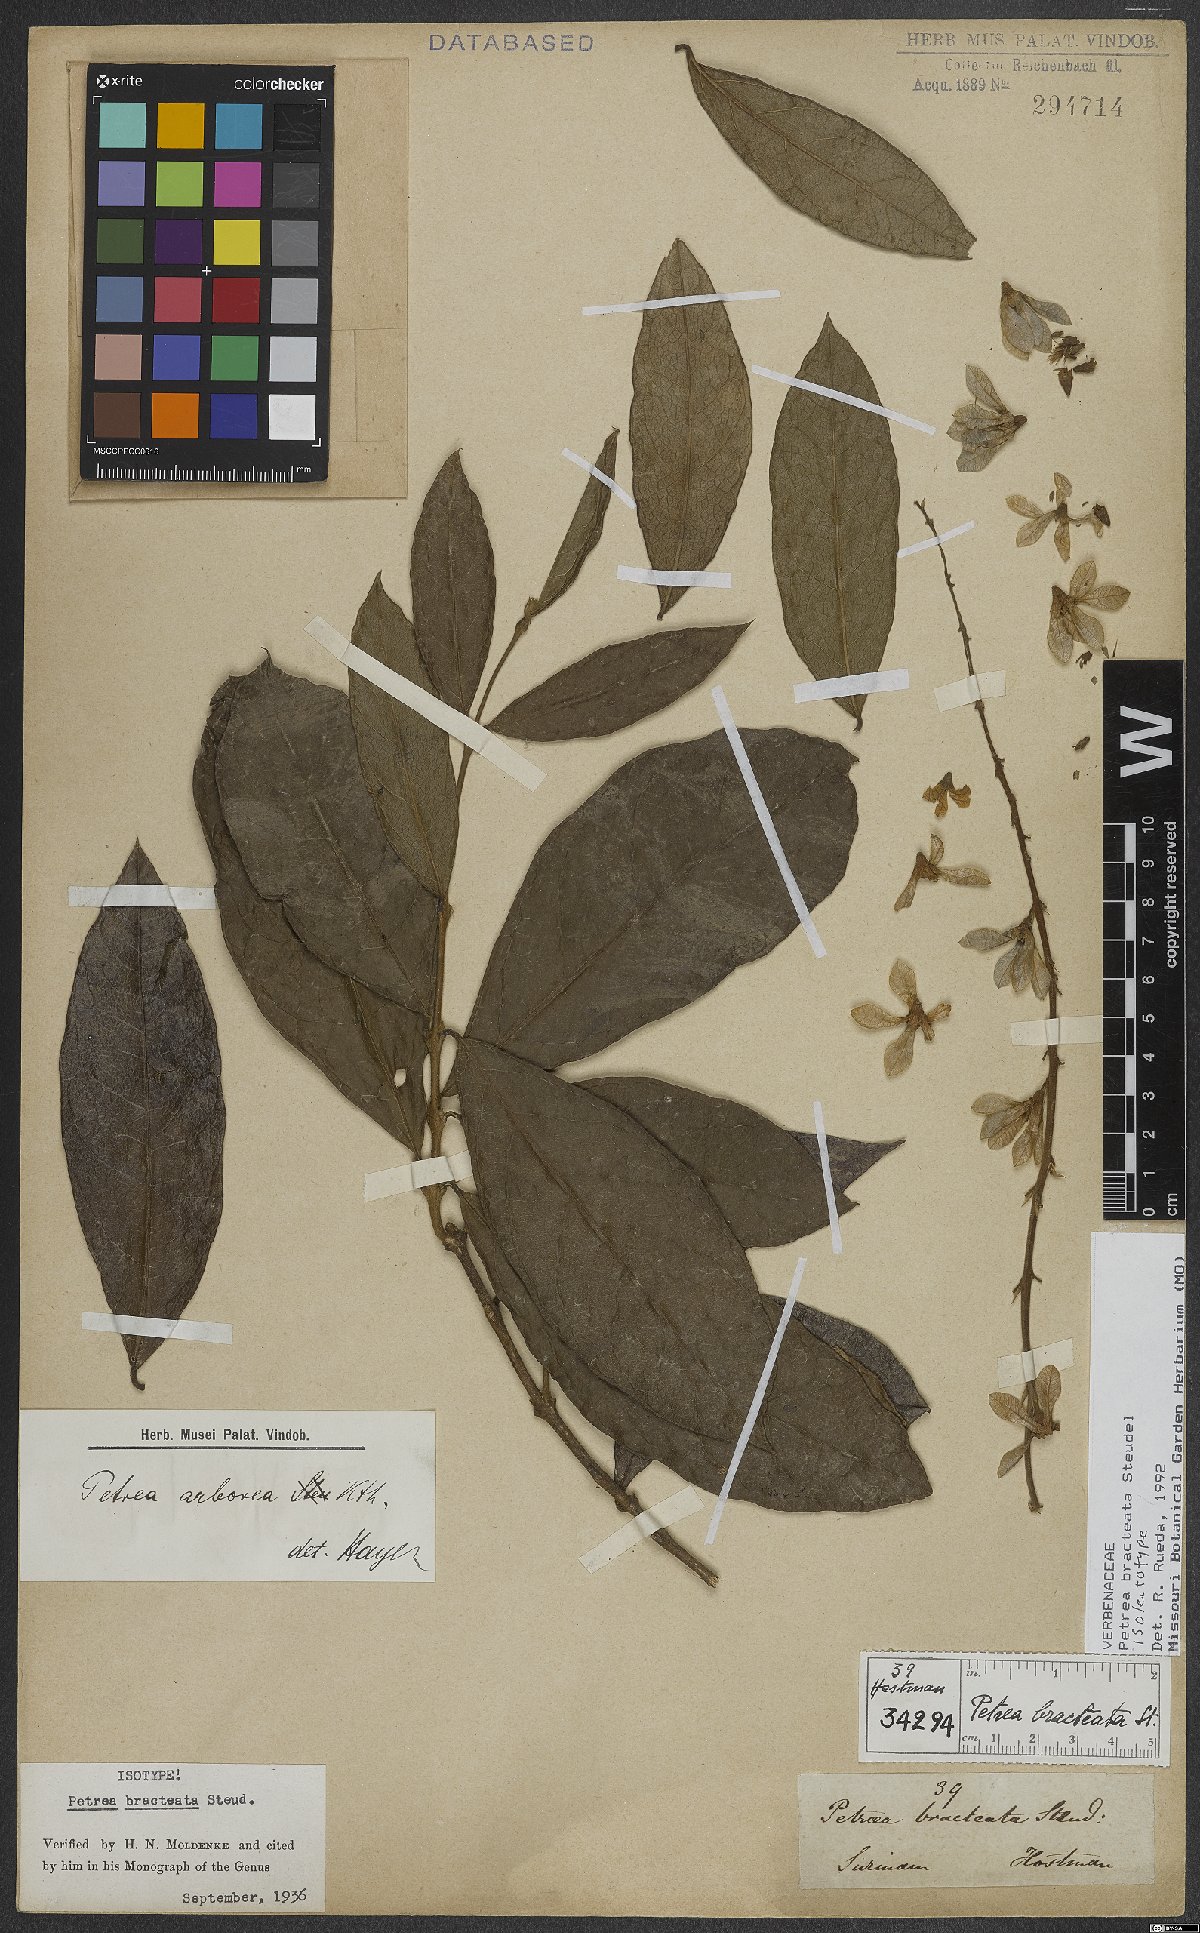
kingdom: Plantae
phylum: Tracheophyta
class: Magnoliopsida
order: Lamiales
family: Verbenaceae
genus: Petrea
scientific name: Petrea bracteata
